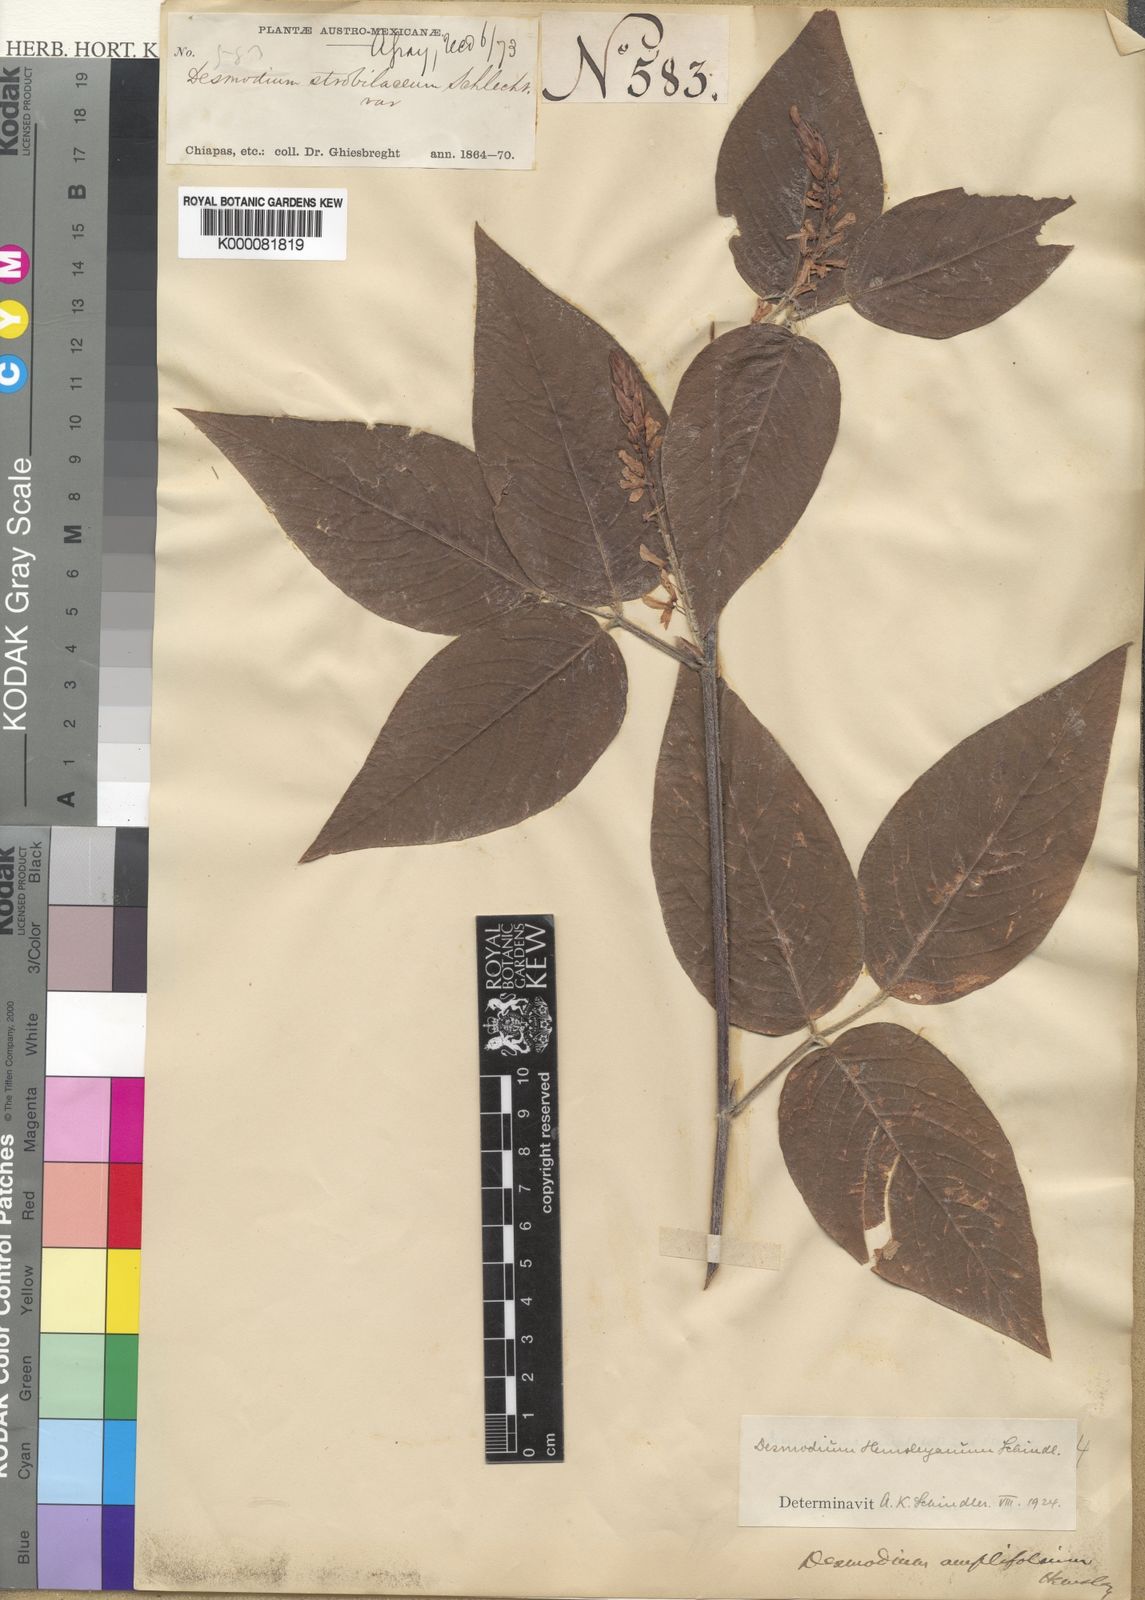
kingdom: Plantae
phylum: Tracheophyta
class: Magnoliopsida
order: Fabales
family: Fabaceae
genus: Desmodium
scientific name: Desmodium
